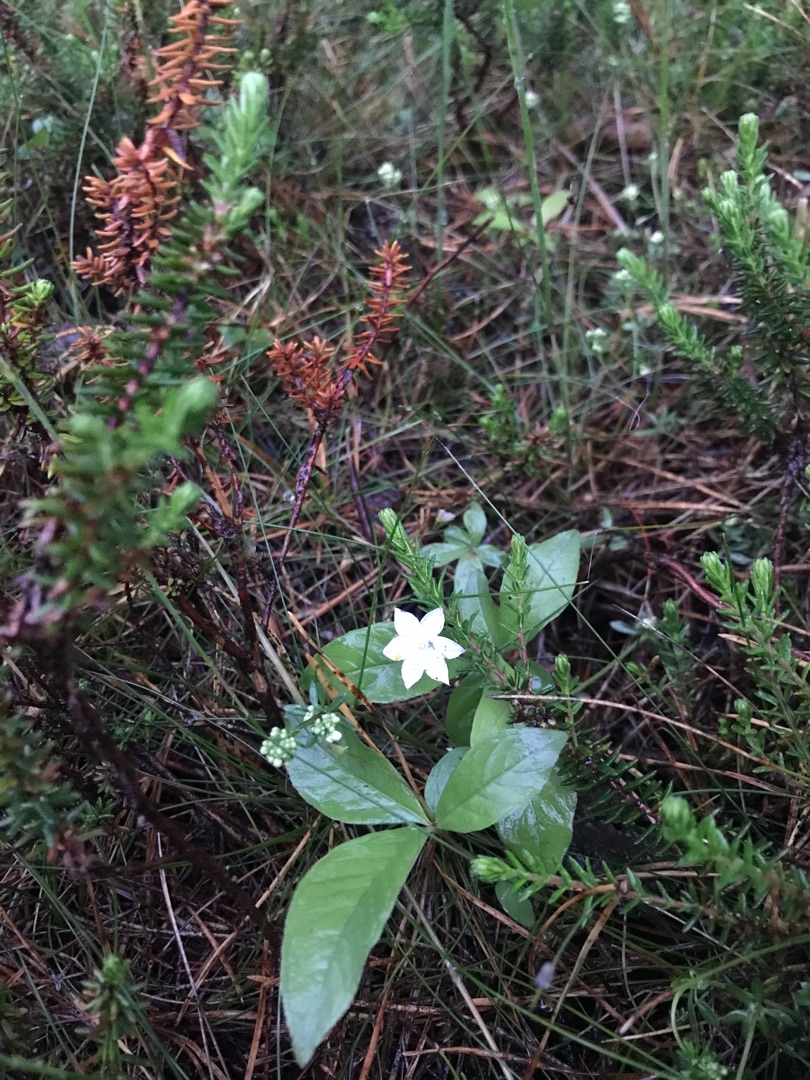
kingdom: Plantae
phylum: Tracheophyta
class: Magnoliopsida
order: Ericales
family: Primulaceae
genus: Lysimachia
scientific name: Lysimachia europaea
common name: Skovstjerne
